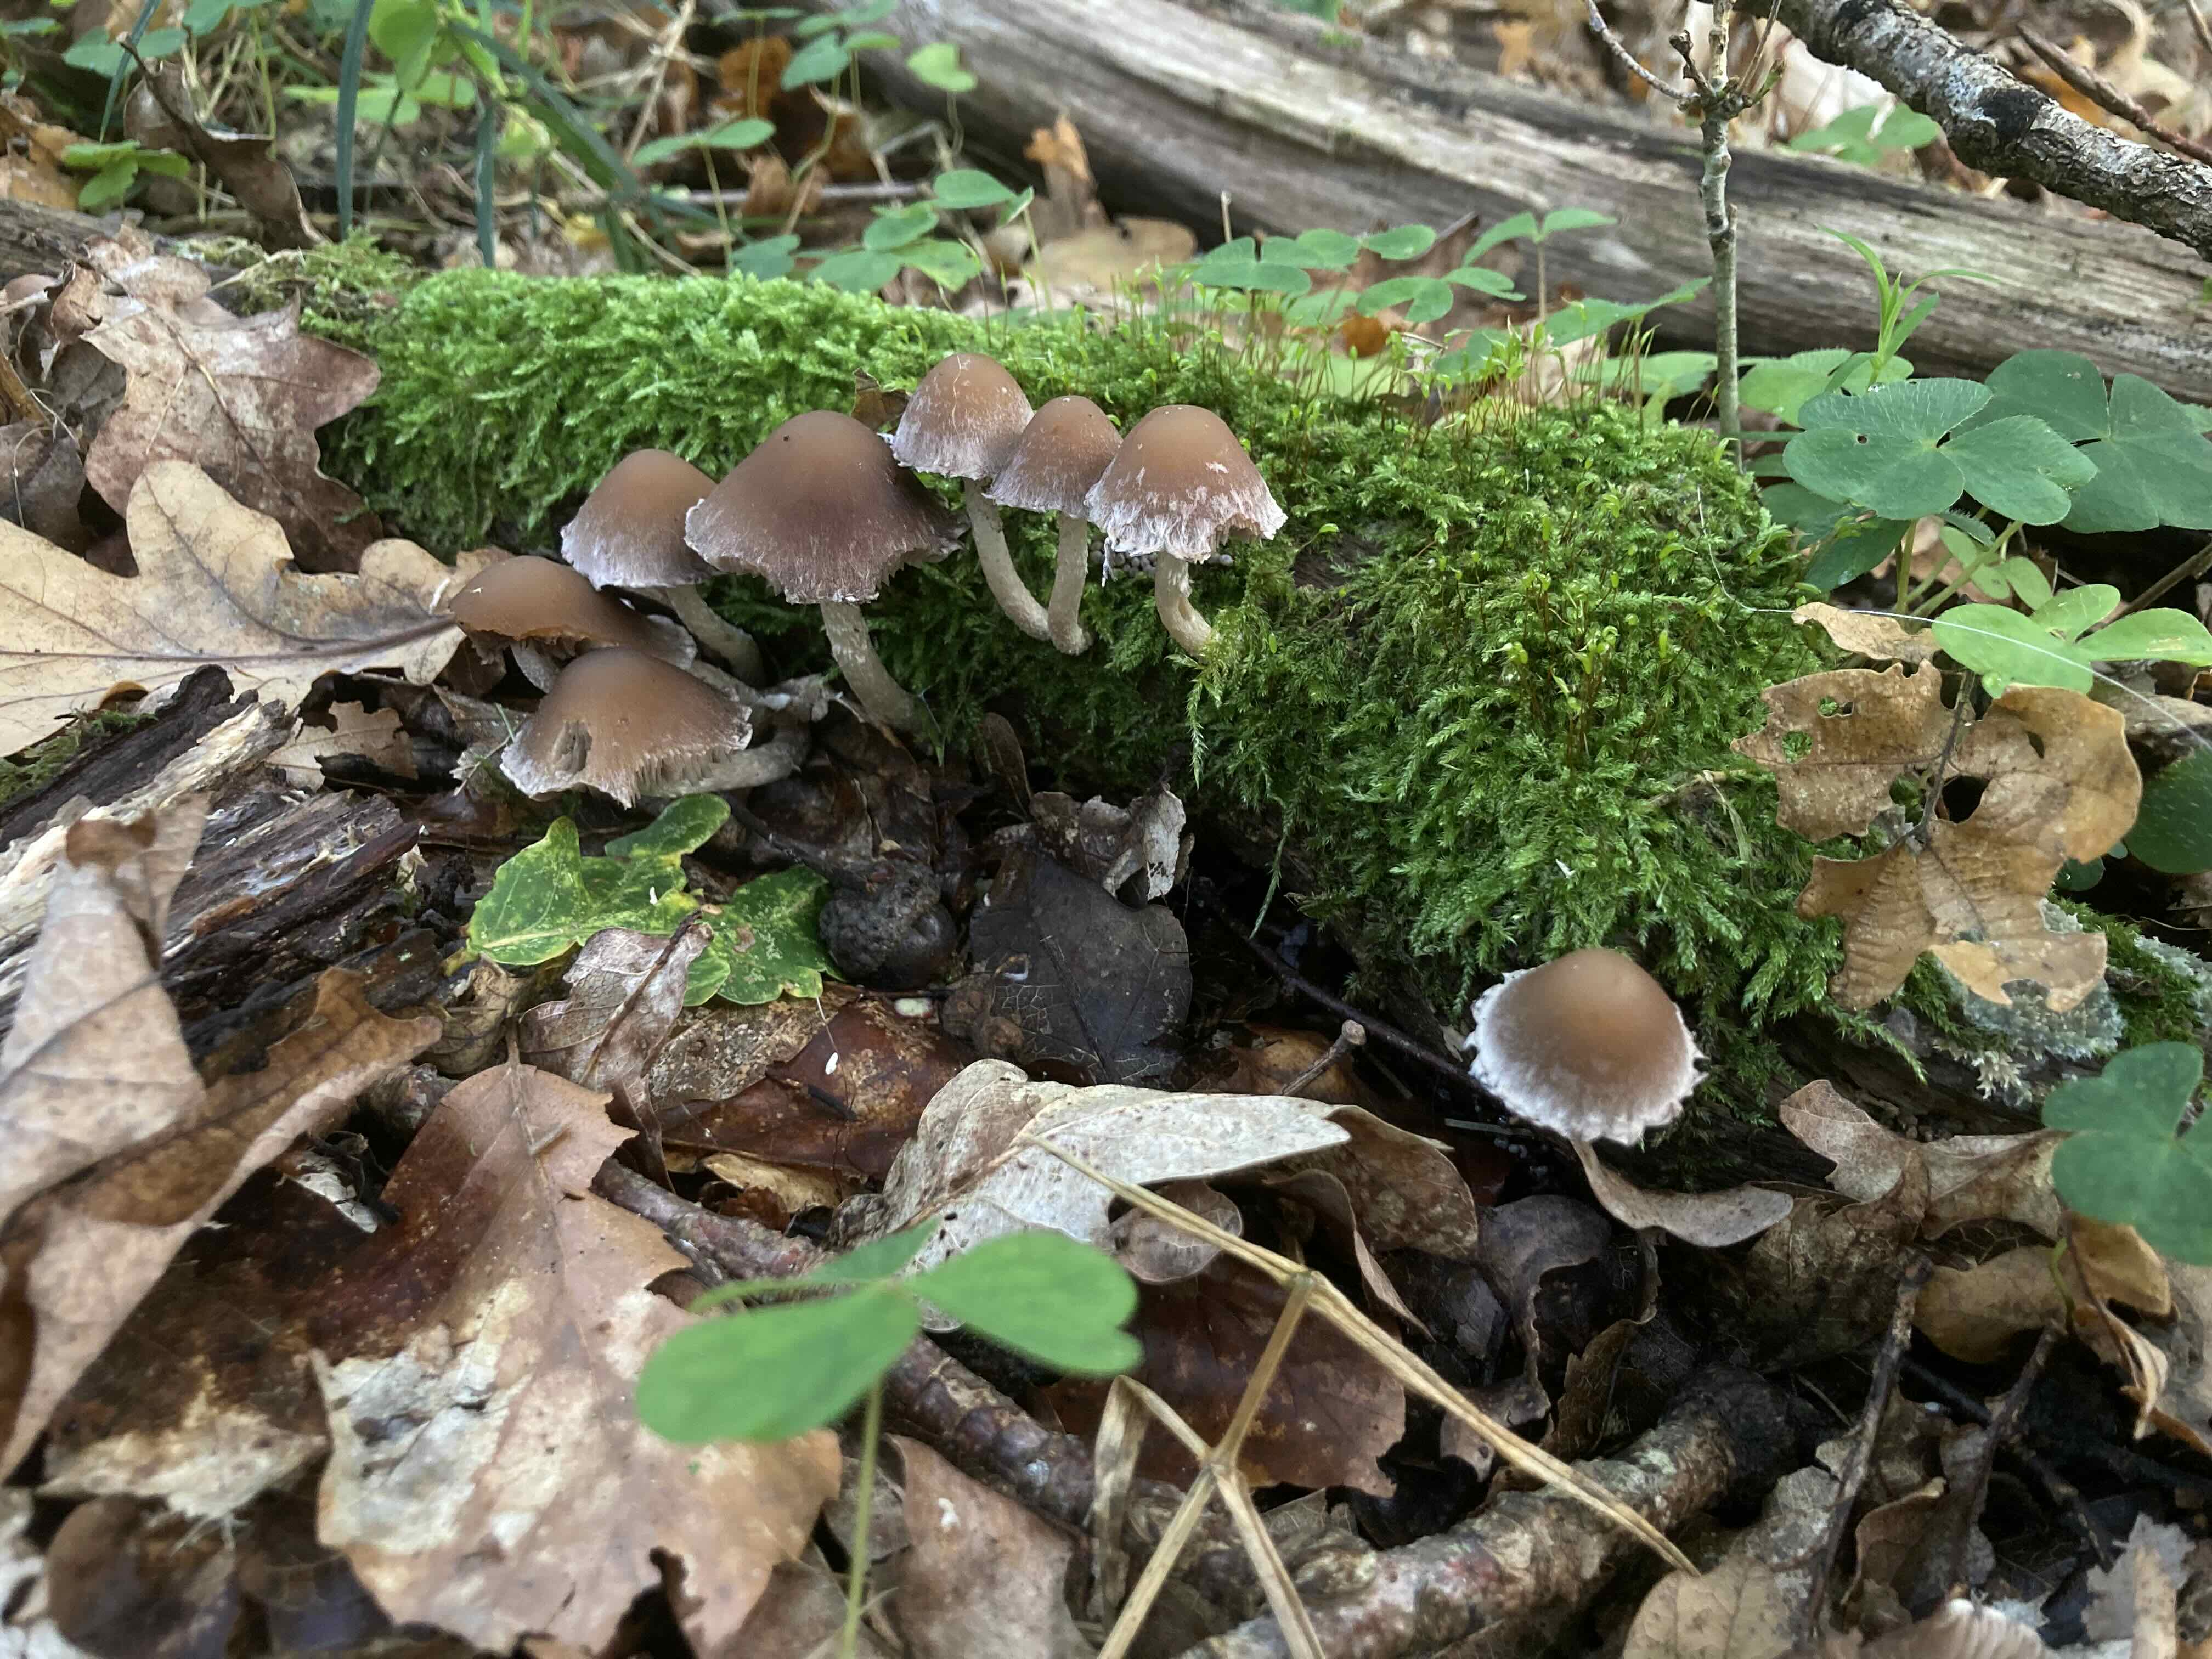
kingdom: Fungi
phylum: Basidiomycota
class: Agaricomycetes
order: Agaricales
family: Psathyrellaceae
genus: Psathyrella
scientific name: Psathyrella spintrigeroides
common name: tandet mørkhat
